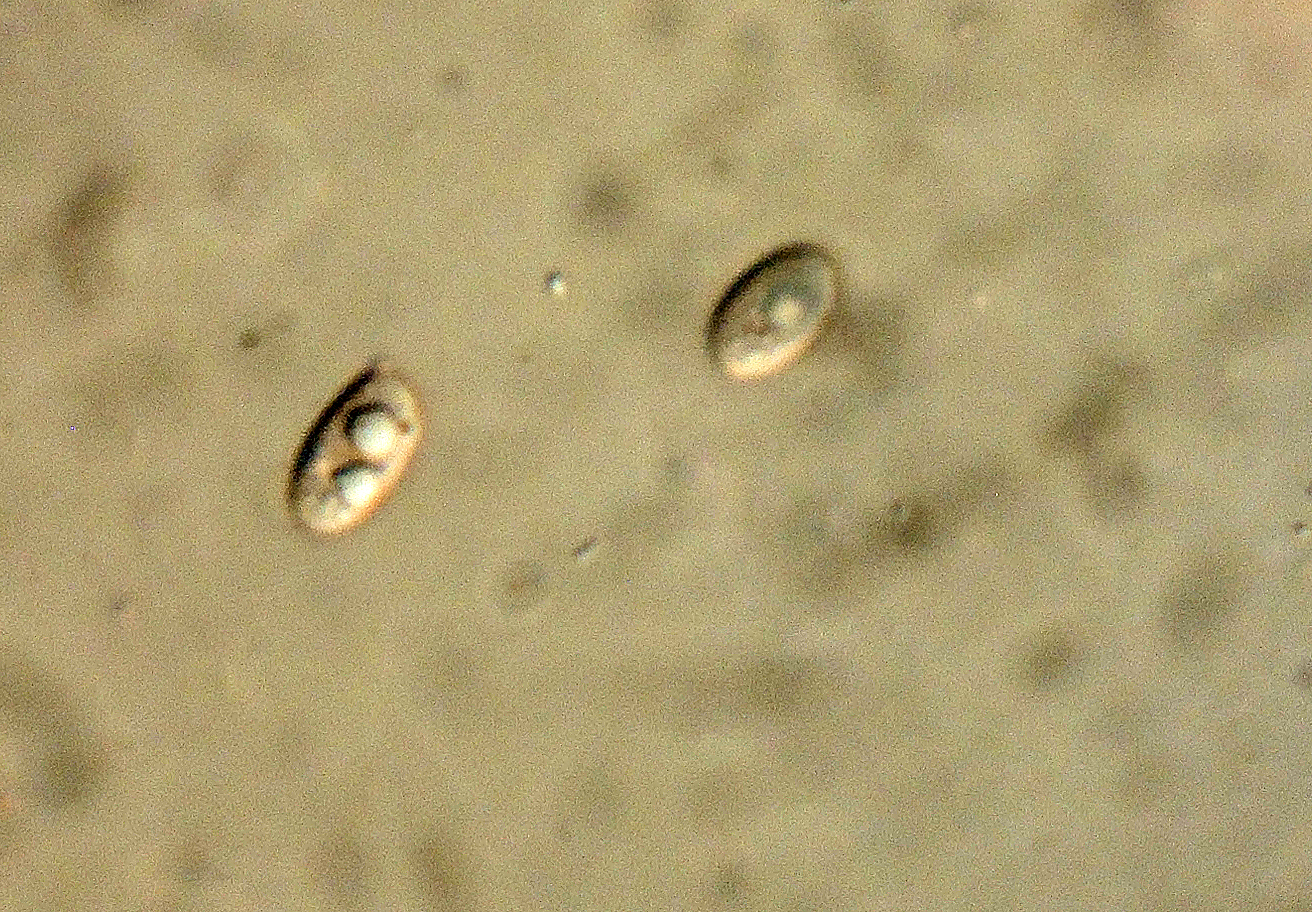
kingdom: Fungi
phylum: Basidiomycota
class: Agaricomycetes
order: Agaricales
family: Tricholomataceae
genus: Clitocybe
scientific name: Clitocybe obsoleta
